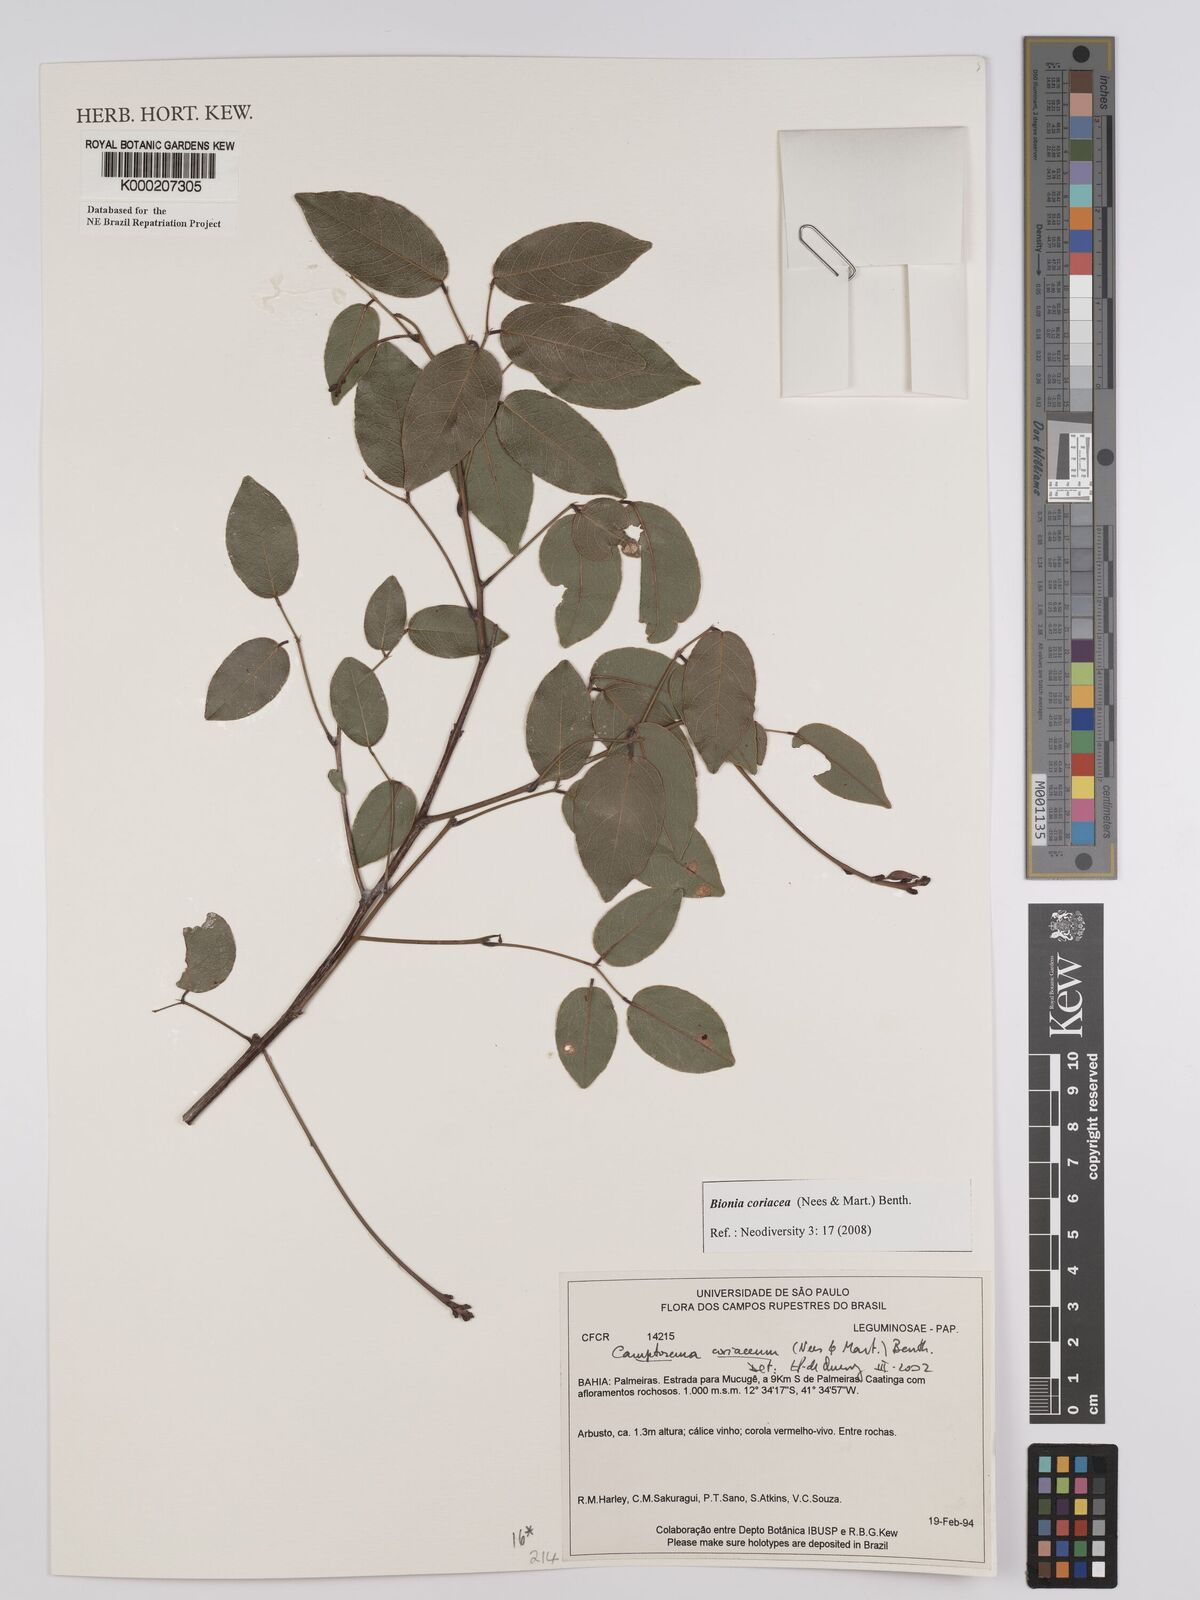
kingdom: Plantae
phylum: Tracheophyta
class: Magnoliopsida
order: Fabales
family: Fabaceae
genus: Camptosema
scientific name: Camptosema coriaceum
